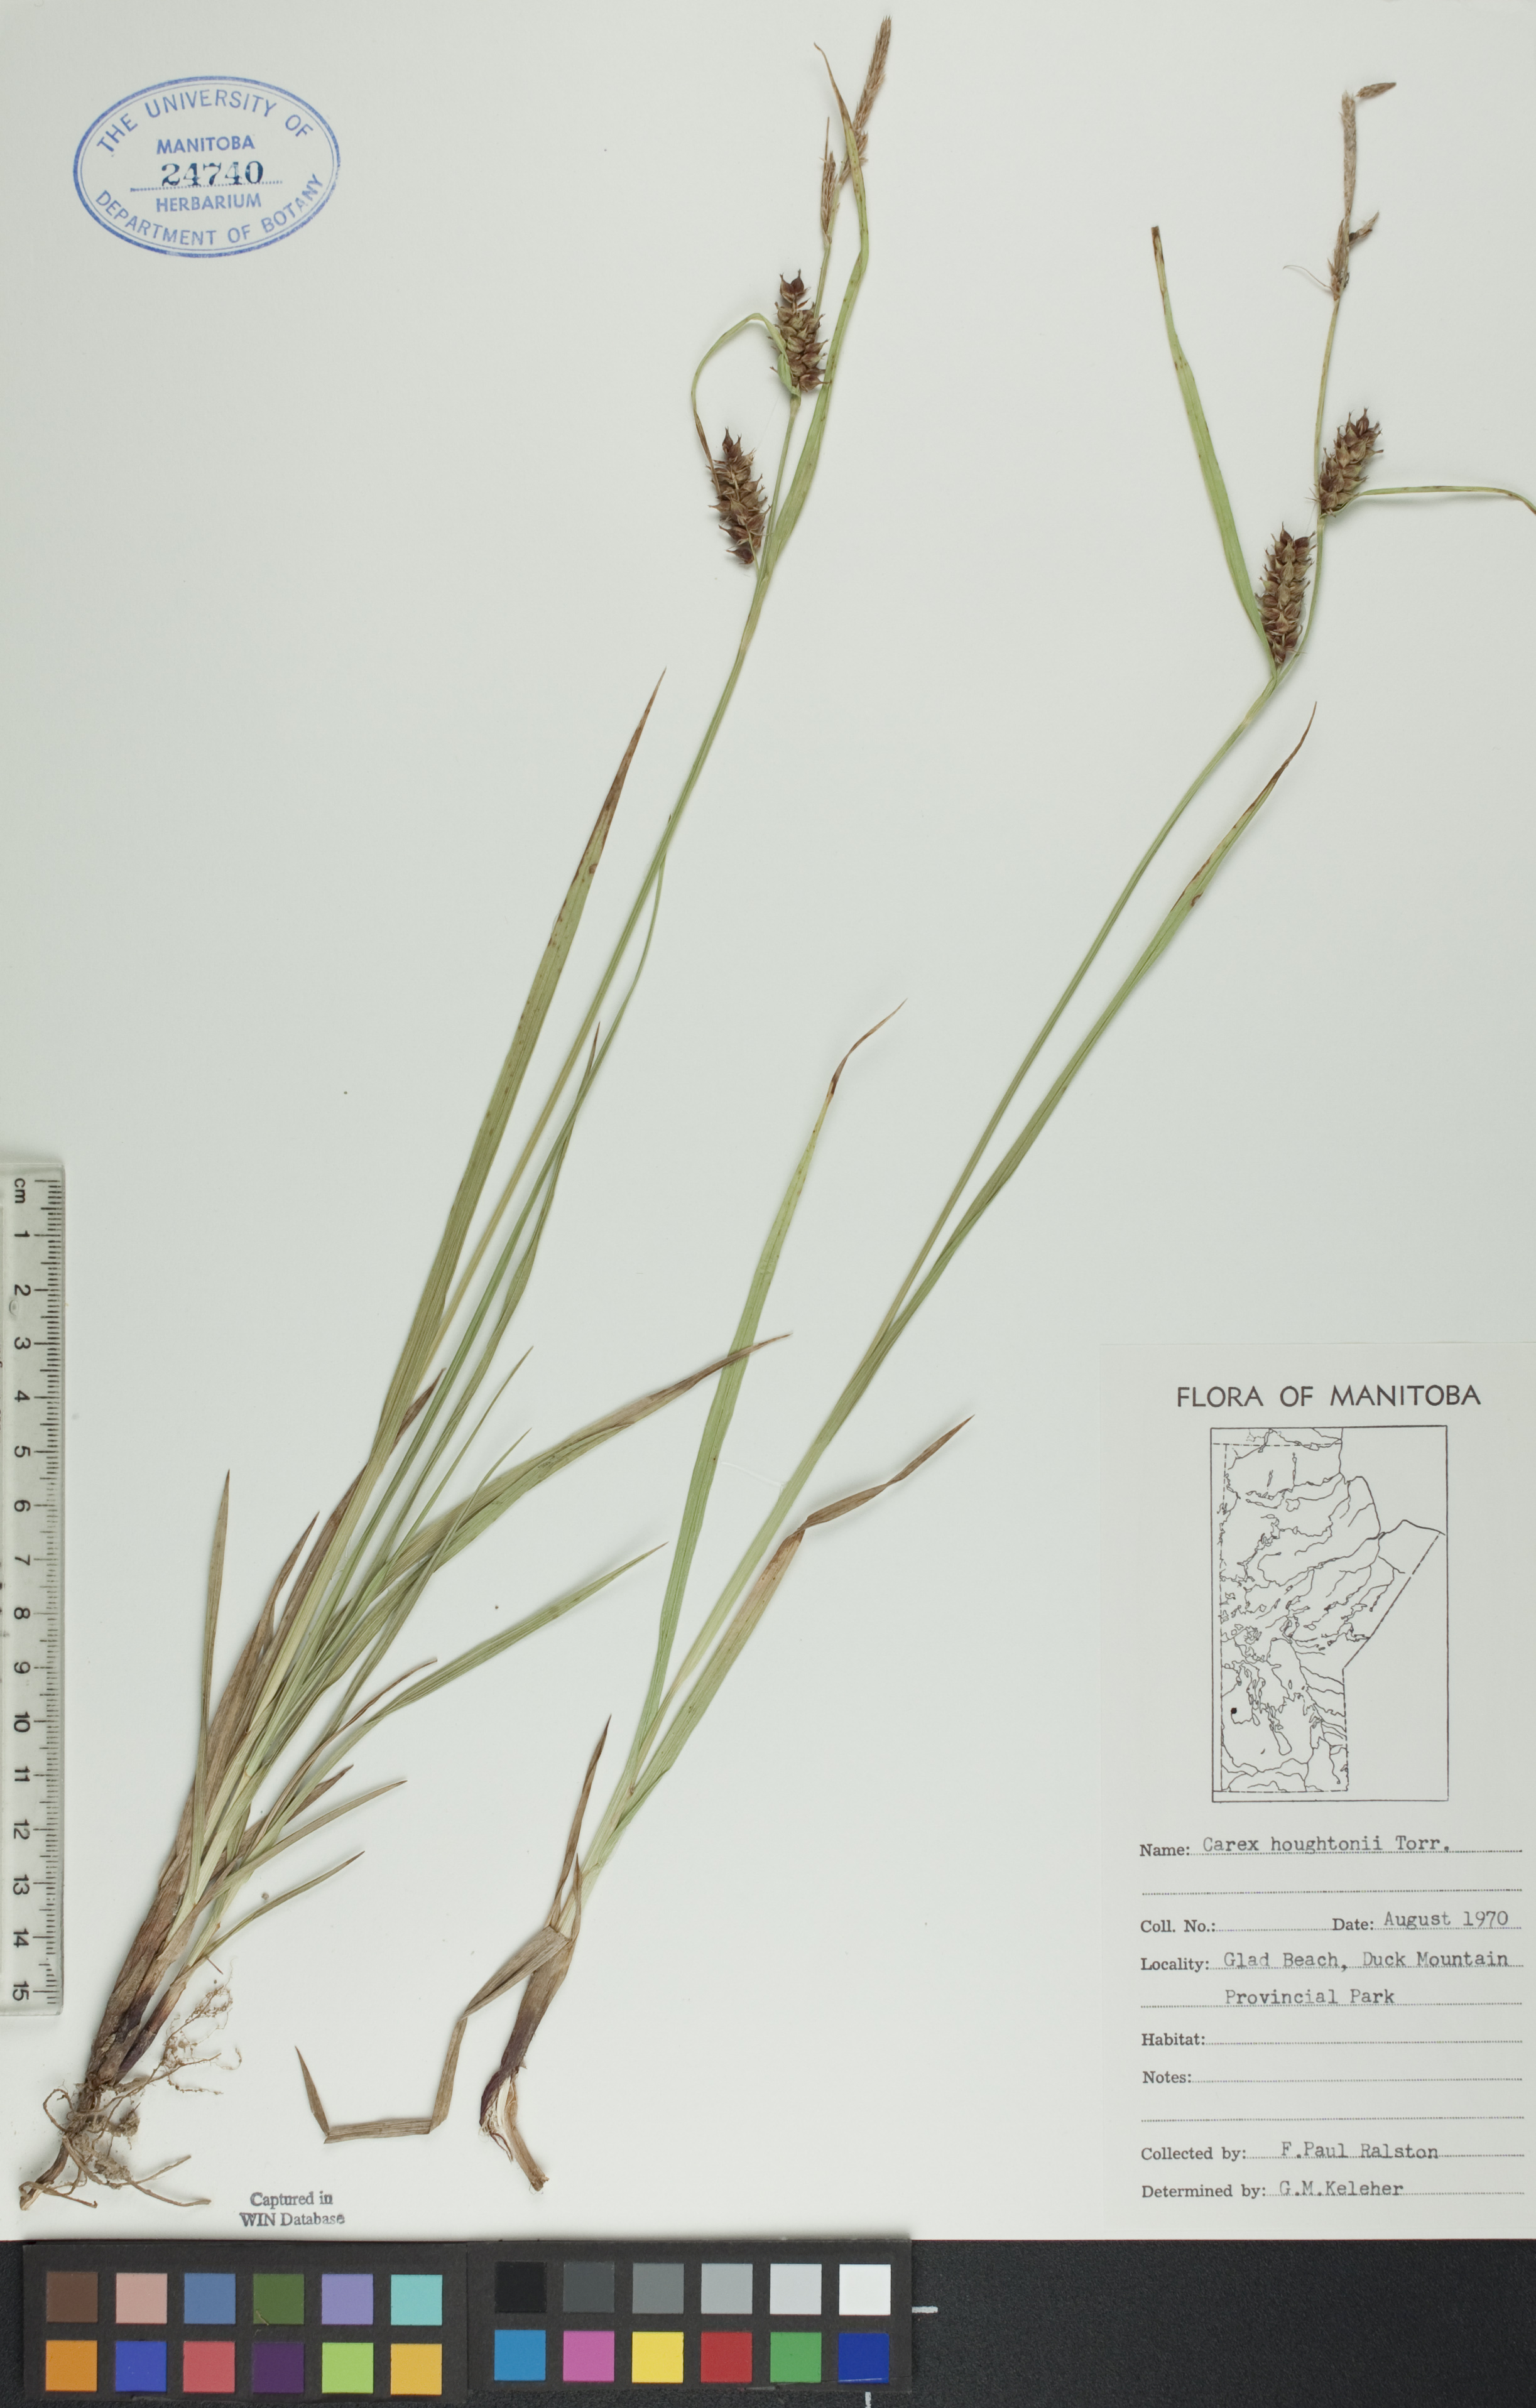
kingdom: Plantae
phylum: Tracheophyta
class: Liliopsida
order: Poales
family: Cyperaceae
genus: Carex
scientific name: Carex houghtoniana
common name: Houghton's sedge
